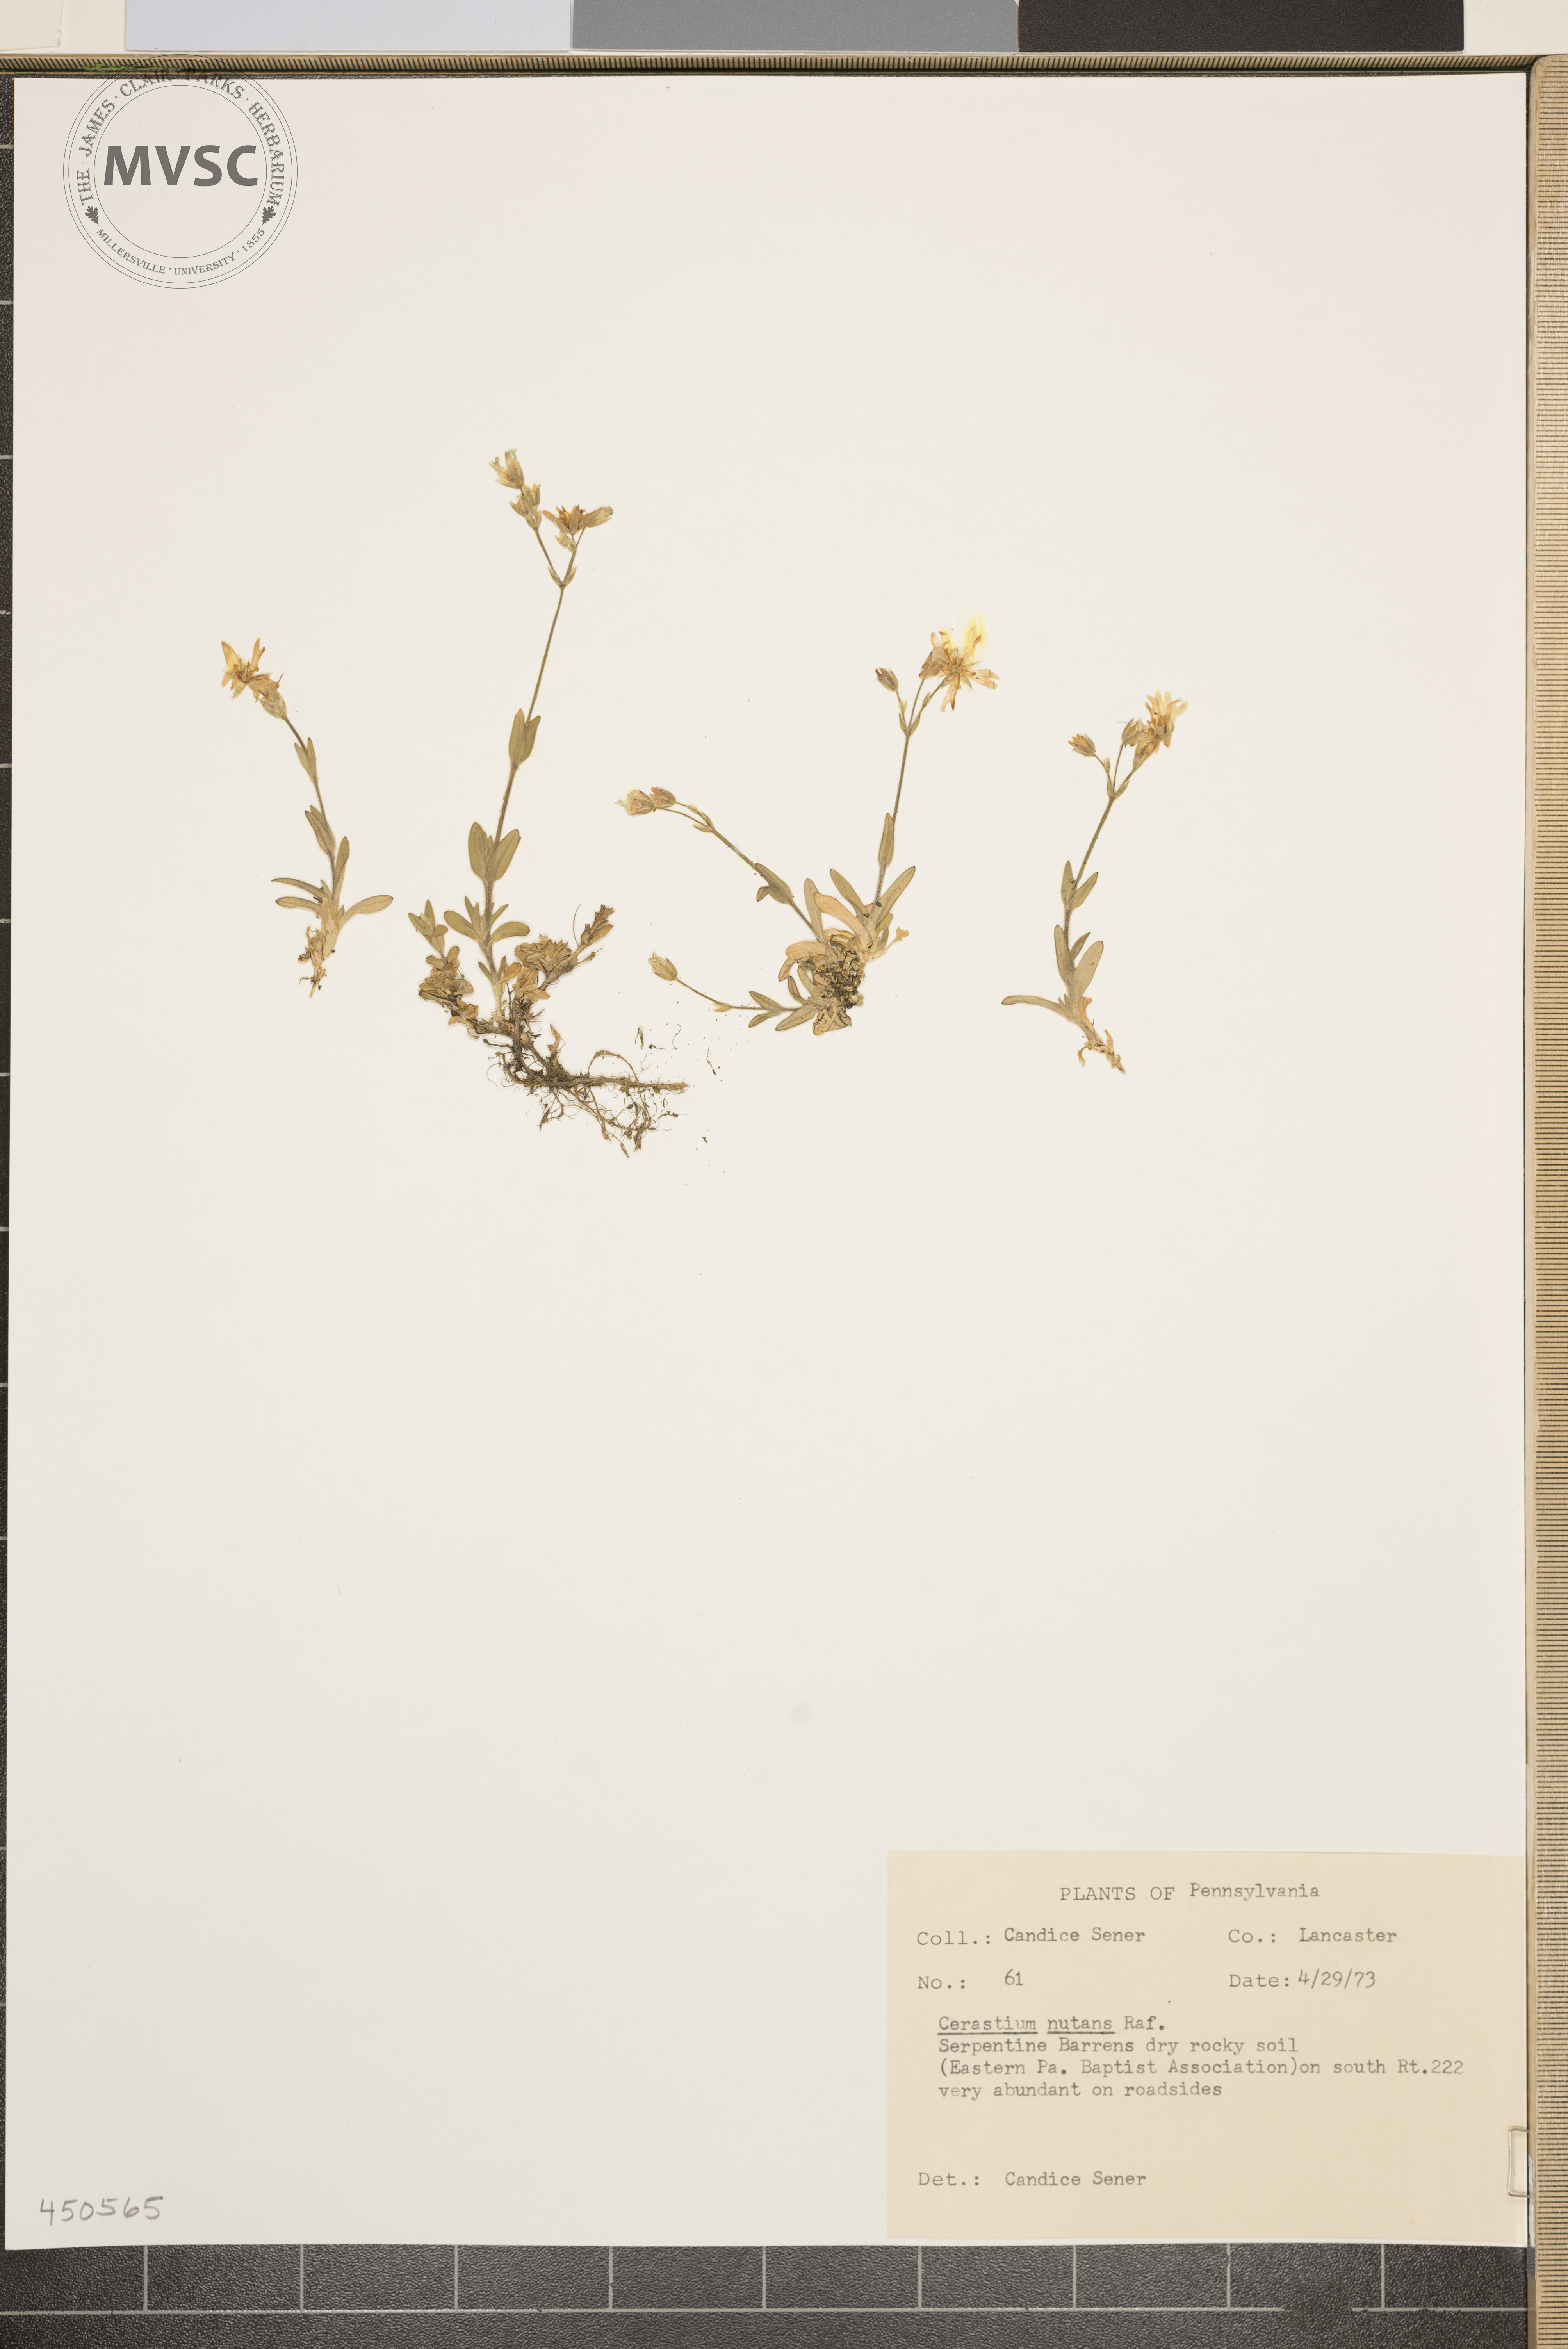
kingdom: Plantae
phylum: Tracheophyta
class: Magnoliopsida
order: Caryophyllales
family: Caryophyllaceae
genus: Cerastium
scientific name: Cerastium nutans
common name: Long-stalked chickweed
